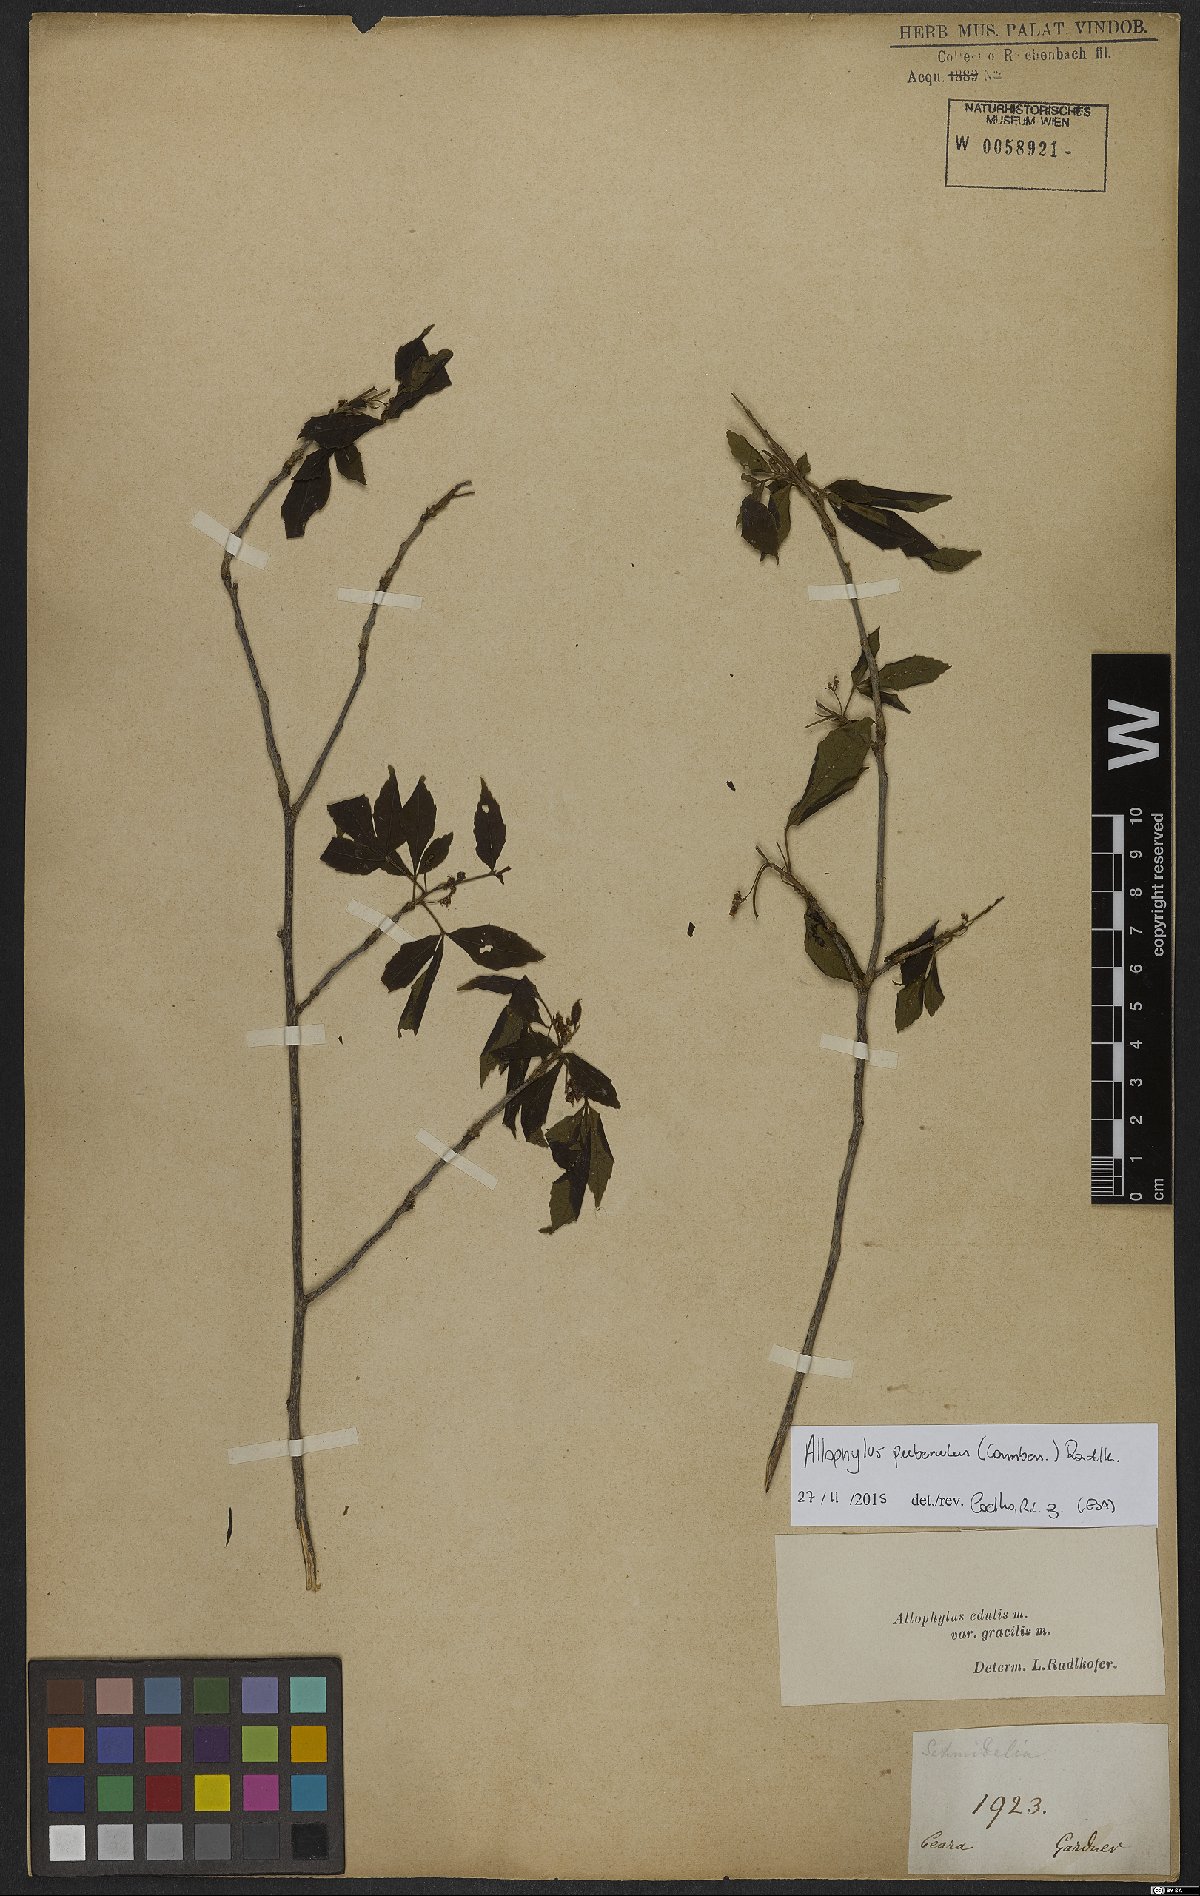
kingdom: Plantae
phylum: Tracheophyta
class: Magnoliopsida
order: Sapindales
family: Sapindaceae
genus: Allophylus
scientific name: Allophylus puberulus
